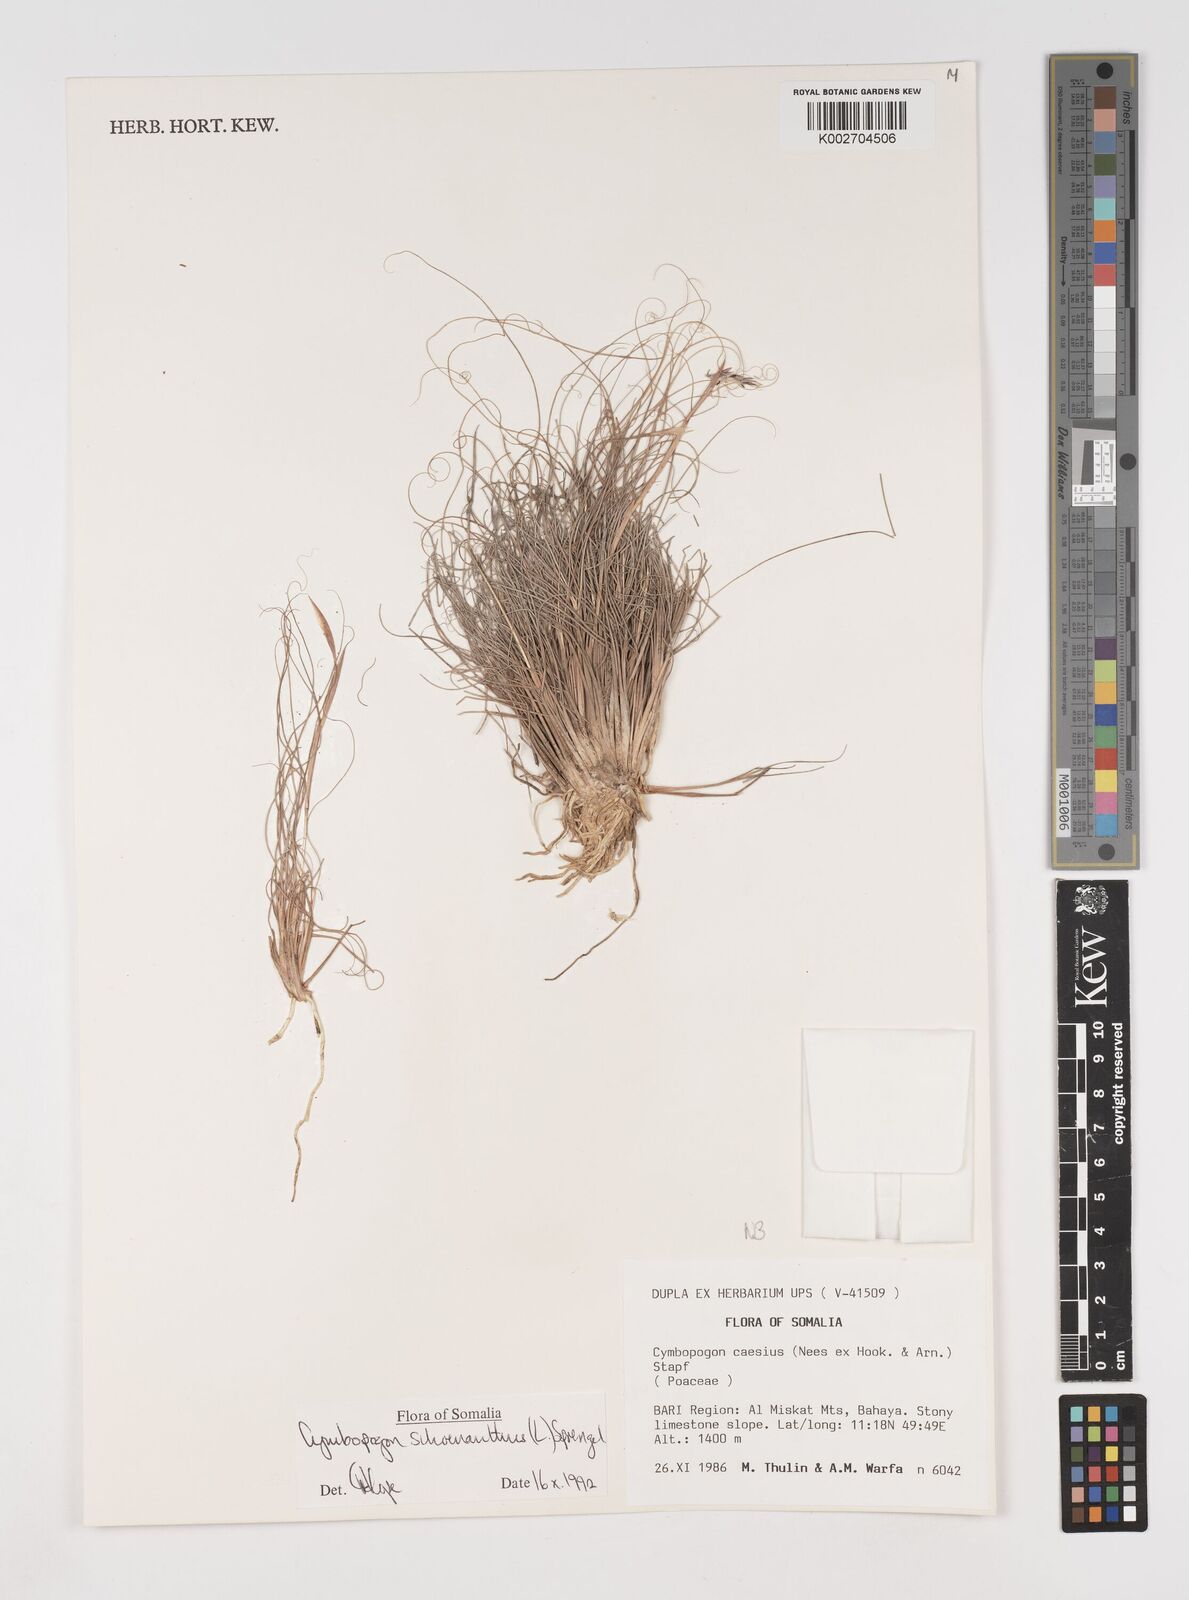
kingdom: Plantae
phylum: Tracheophyta
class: Liliopsida
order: Poales
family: Poaceae
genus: Cymbopogon
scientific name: Cymbopogon schoenanthus
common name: Geranium grass
